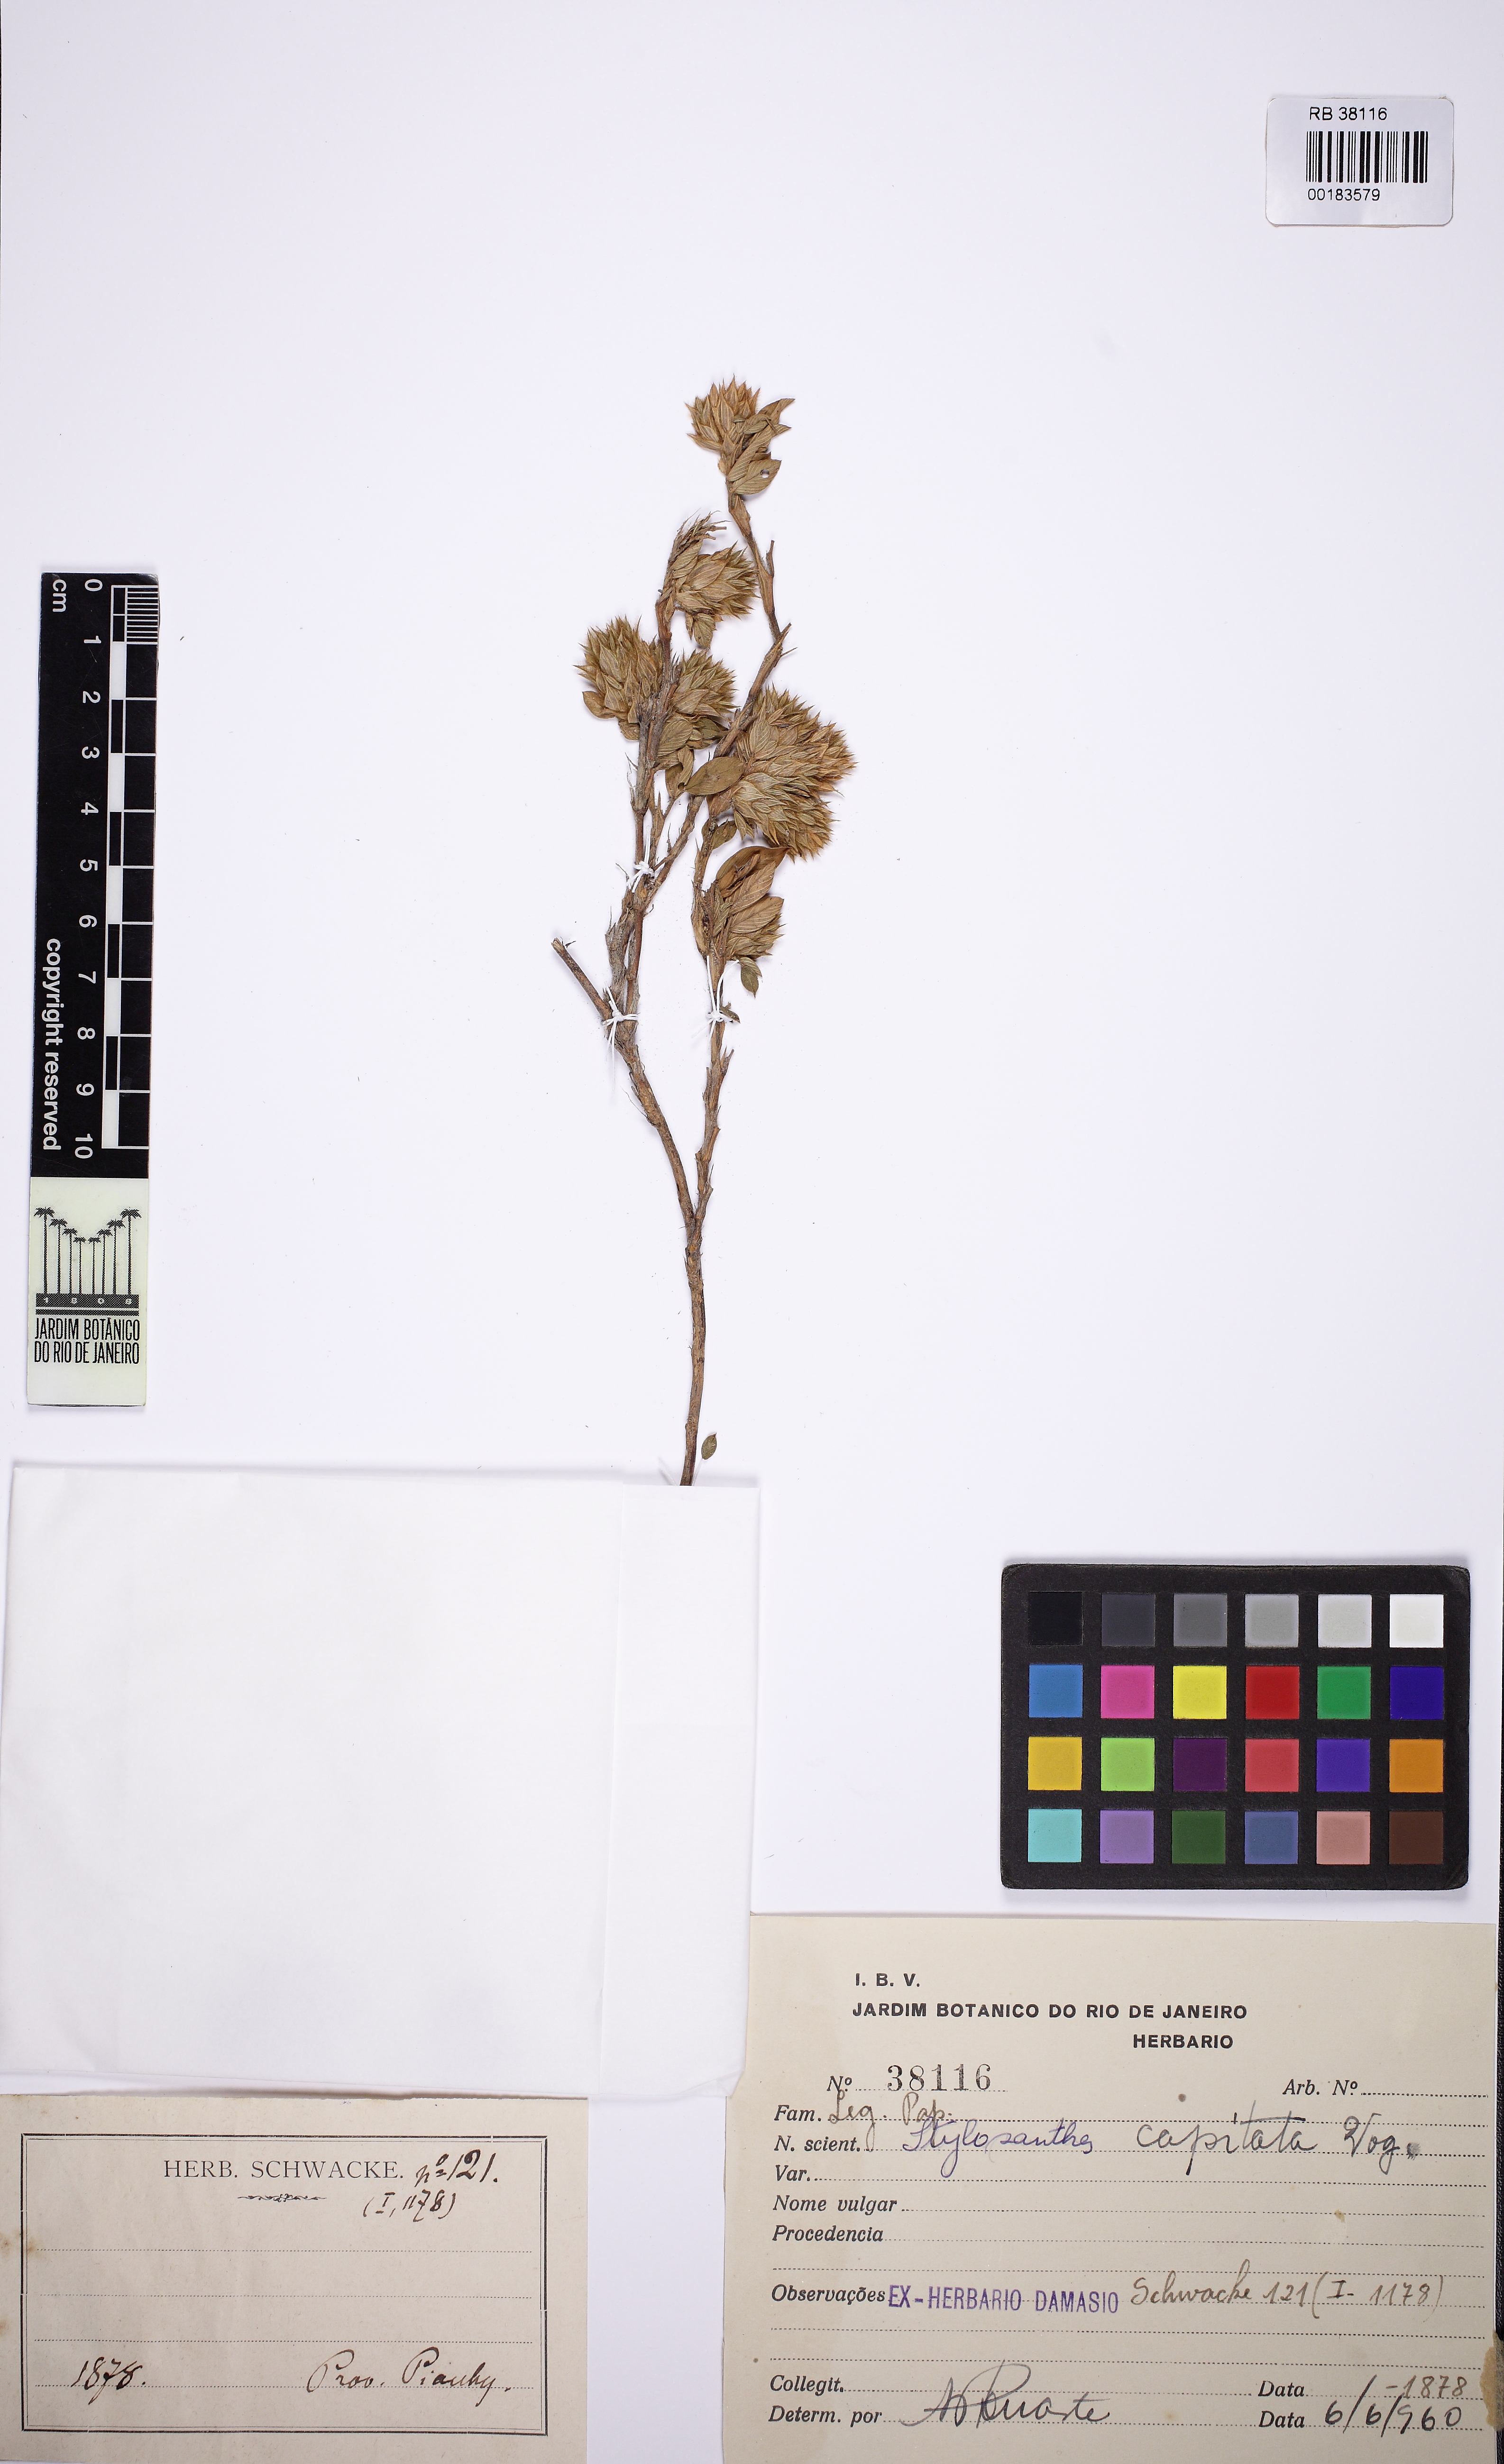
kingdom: Plantae
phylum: Tracheophyta
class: Magnoliopsida
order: Fabales
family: Fabaceae
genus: Stylosanthes
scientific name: Stylosanthes capitata
